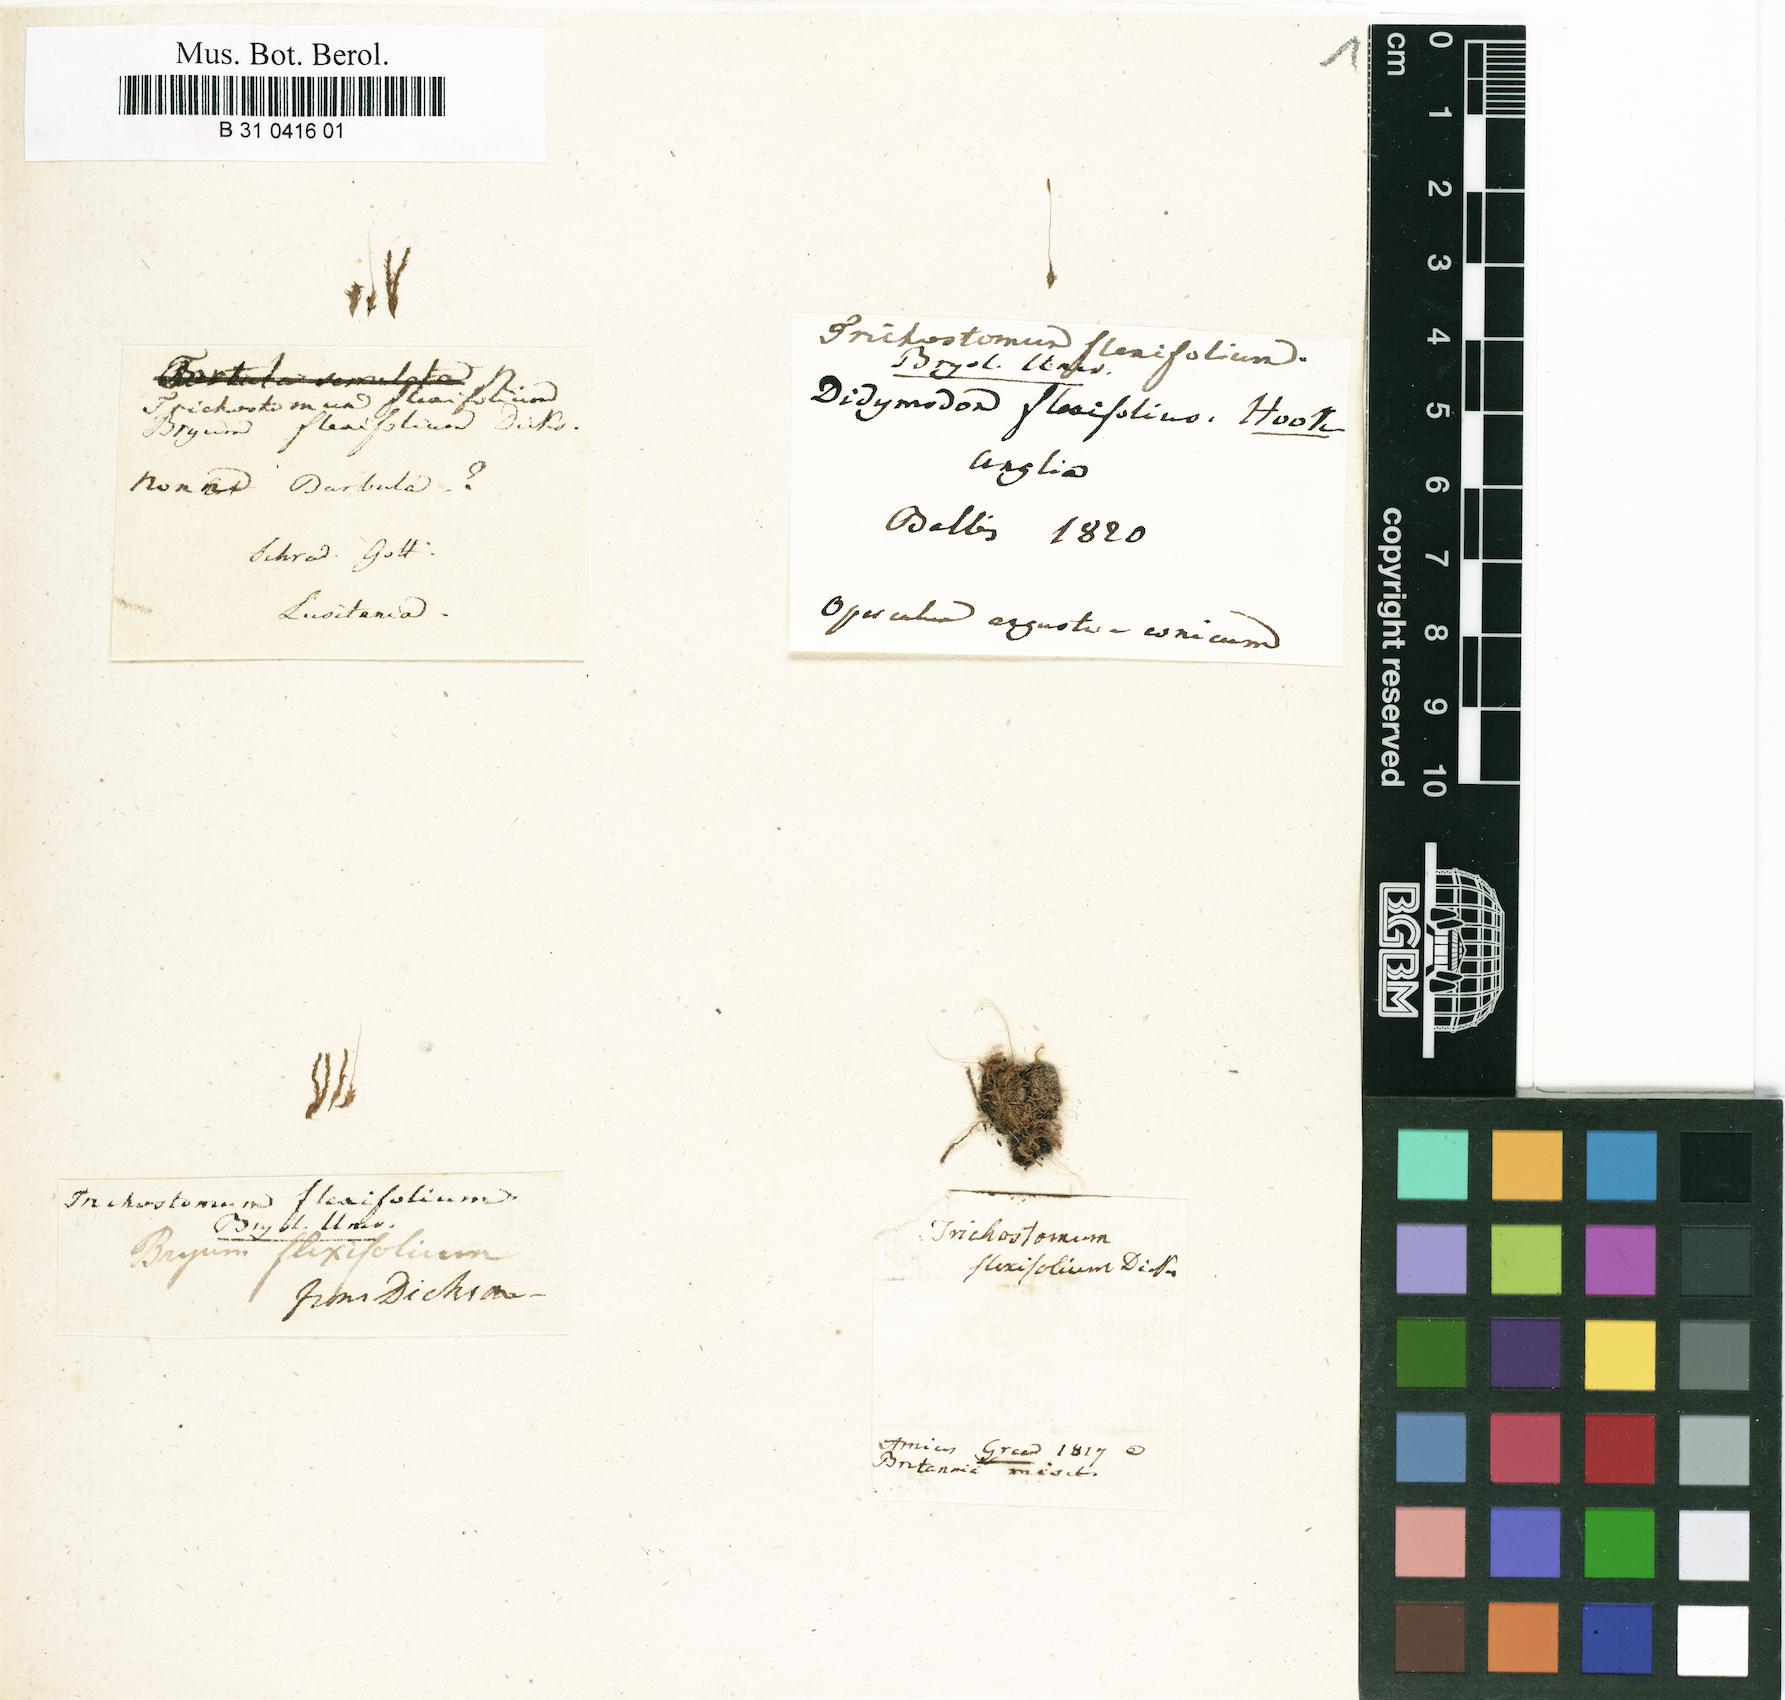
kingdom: Plantae
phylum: Bryophyta
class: Bryopsida
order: Pottiales
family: Pottiaceae
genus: Leptodontium
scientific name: Leptodontium flexifolium
